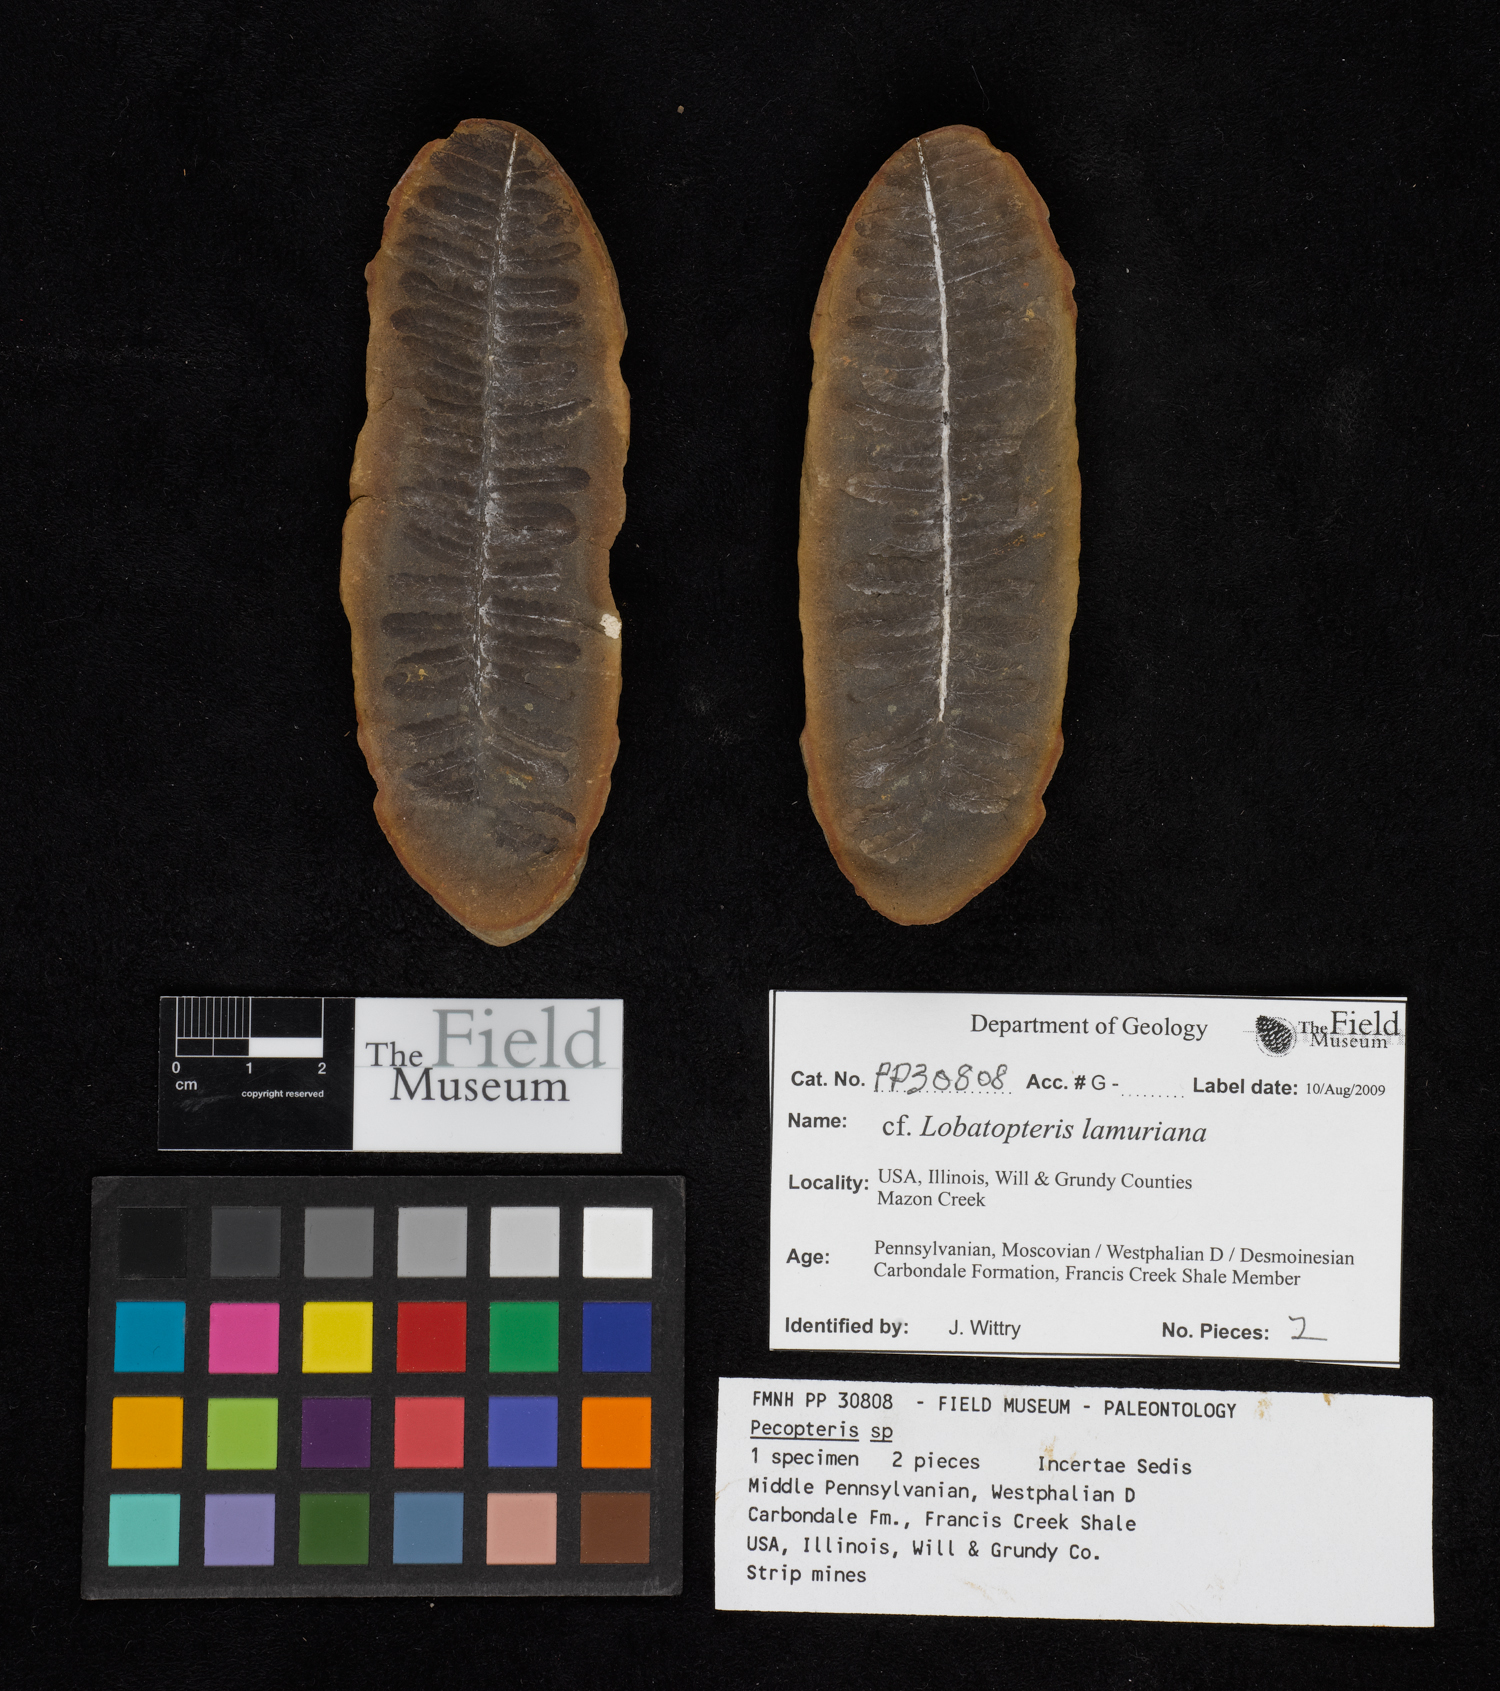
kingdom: Plantae
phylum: Tracheophyta
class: Polypodiopsida
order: Marattiales
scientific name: Marattiales
